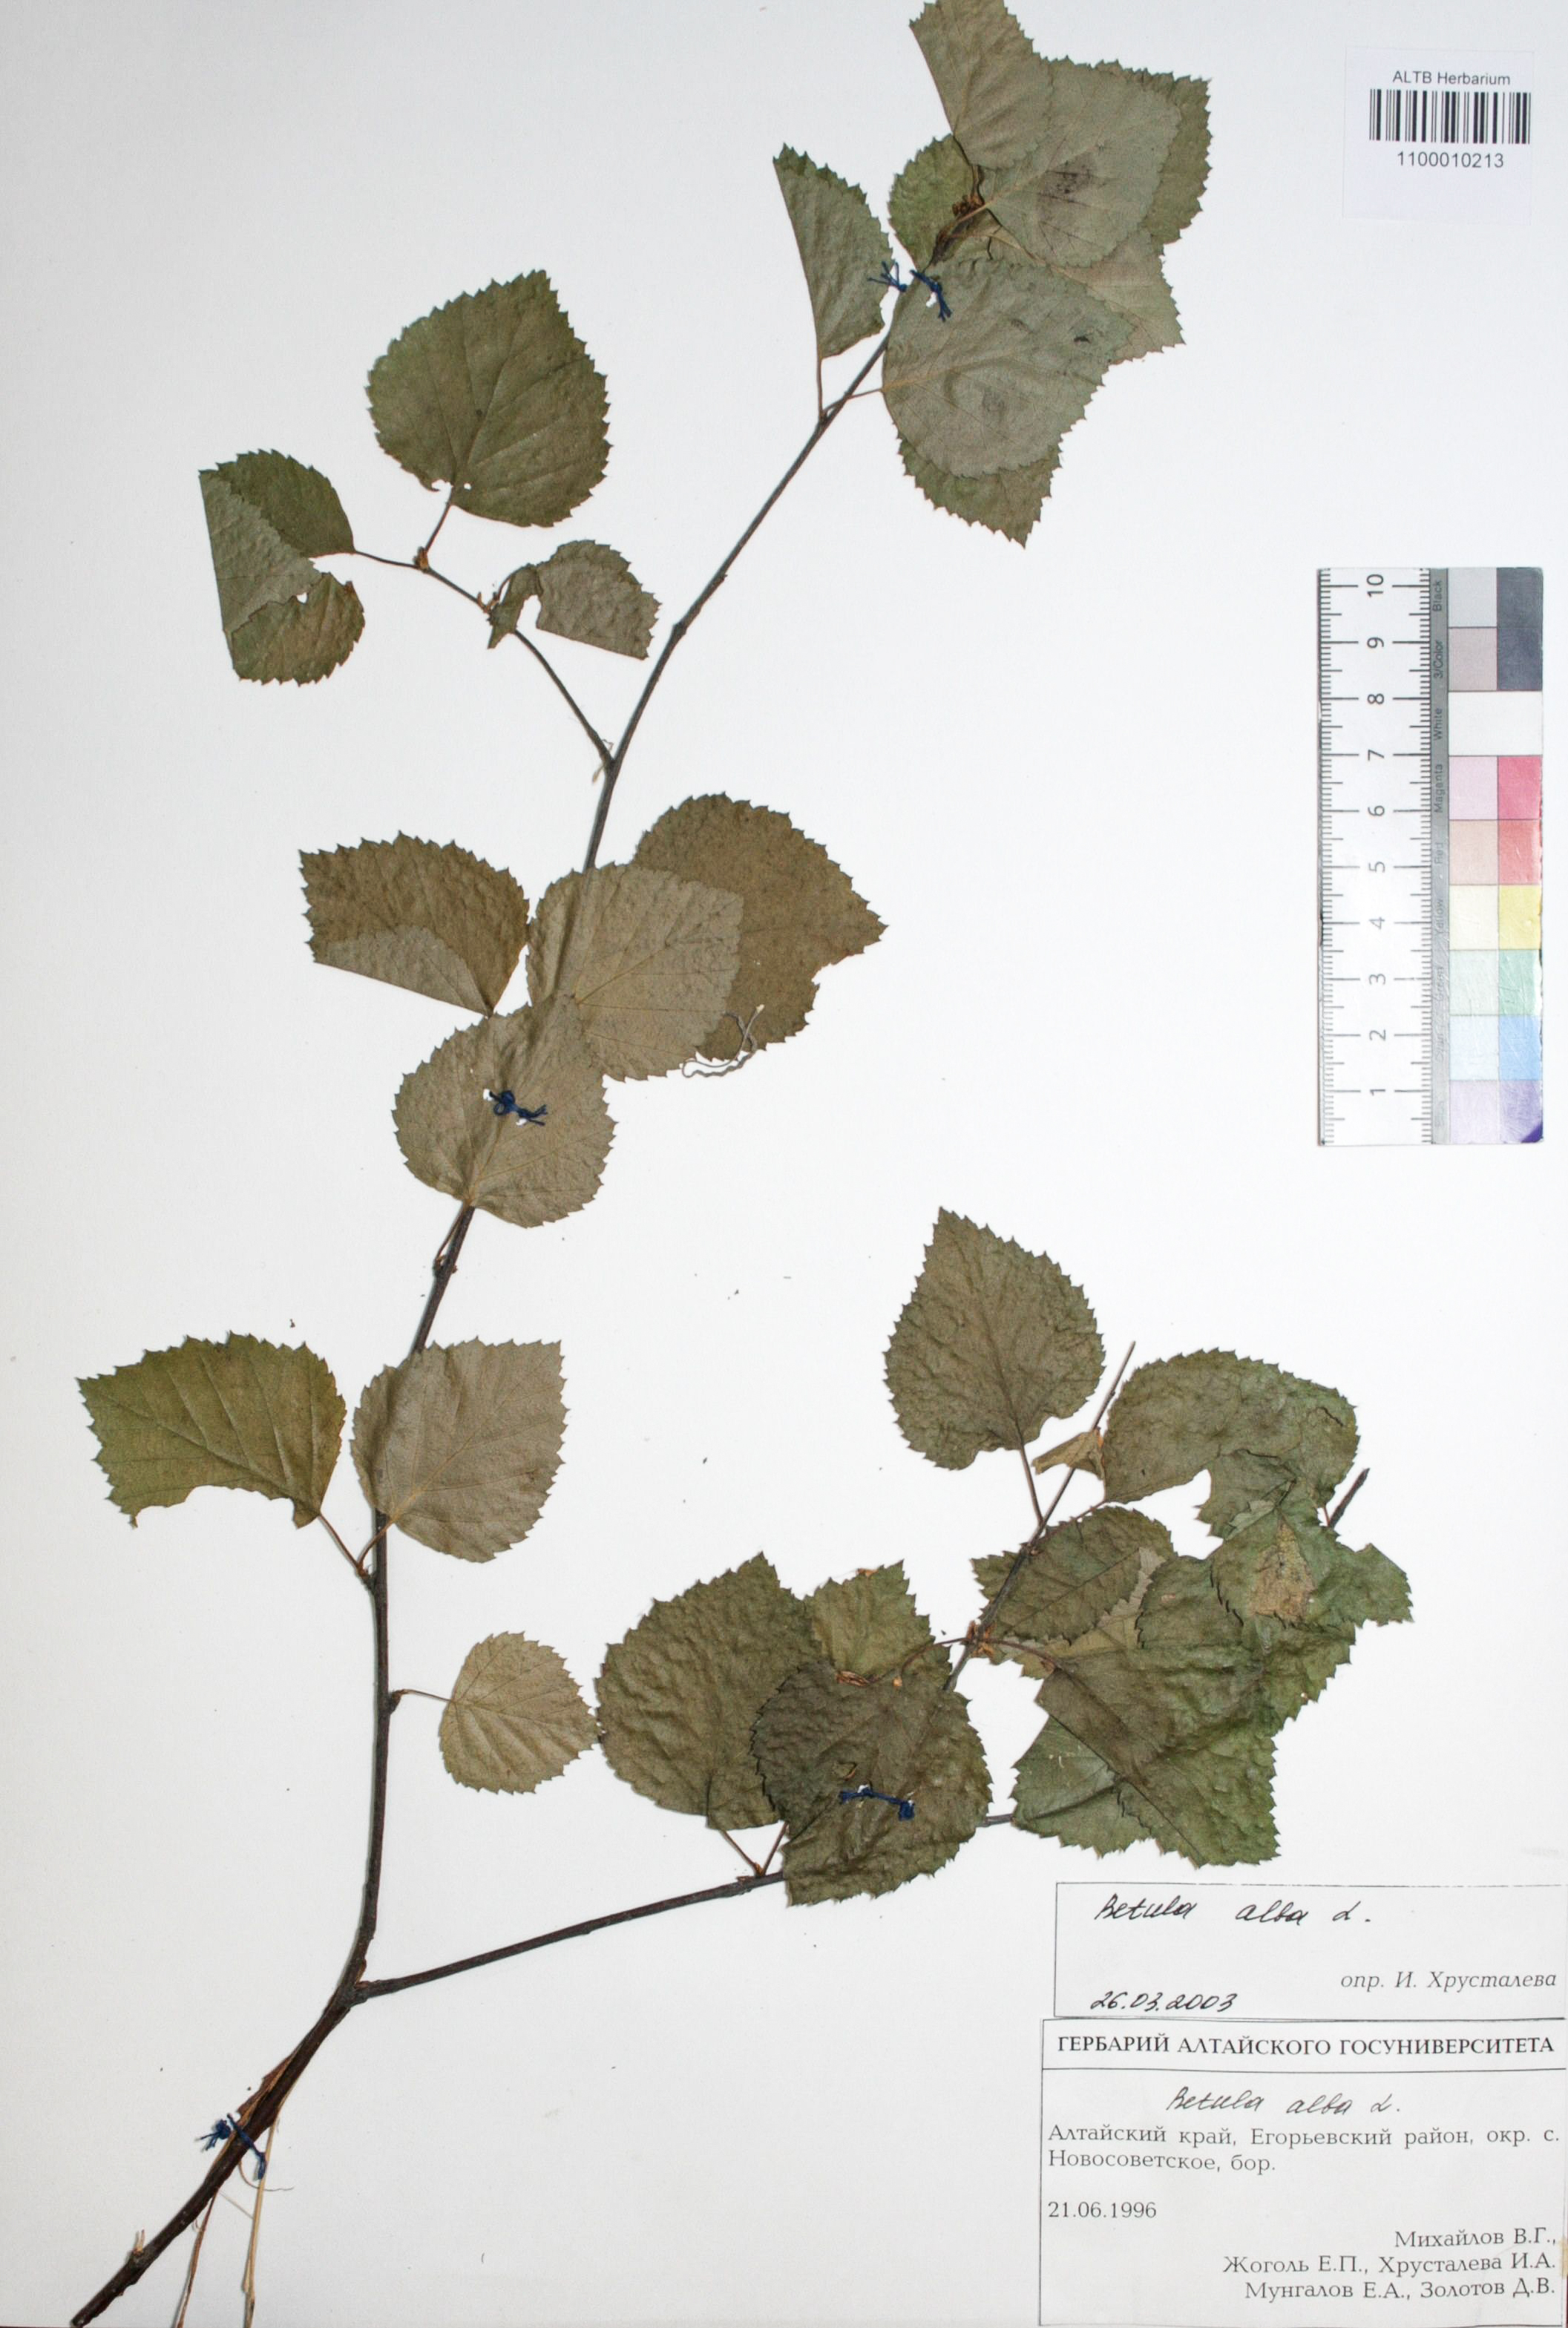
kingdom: Plantae
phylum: Tracheophyta
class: Magnoliopsida
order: Fagales
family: Betulaceae
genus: Betula
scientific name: Betula pubescens
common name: Downy birch
